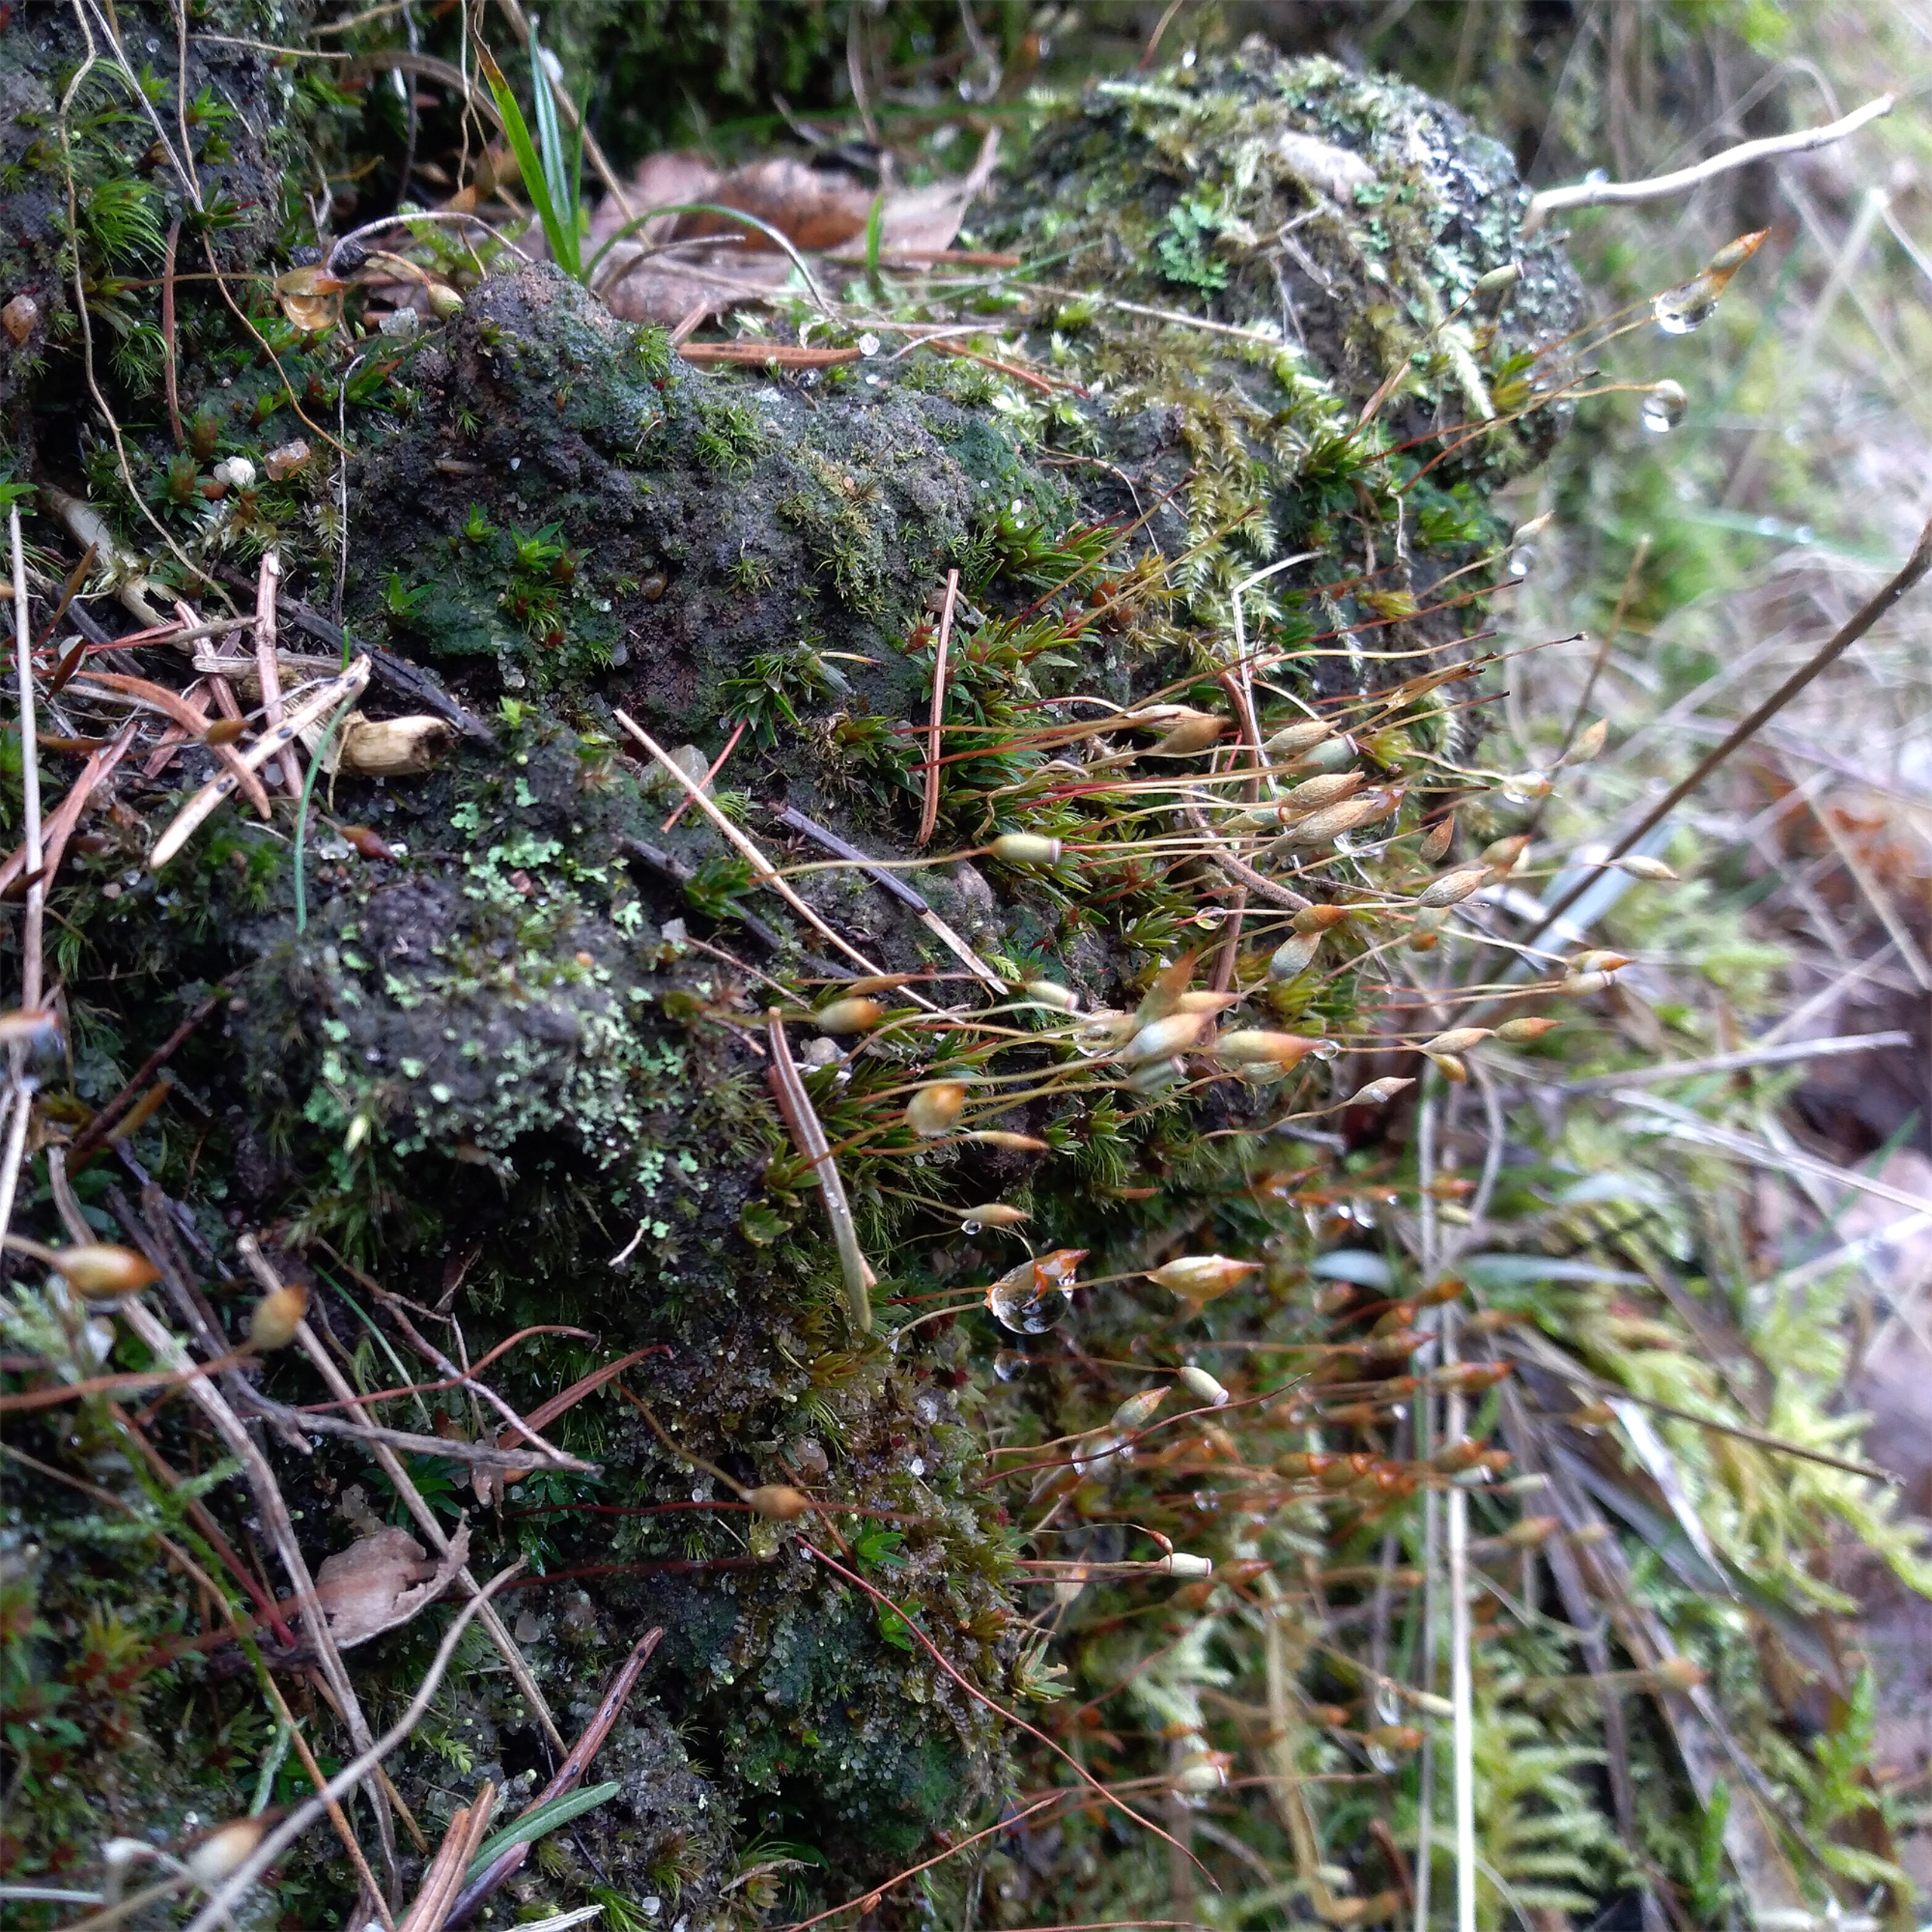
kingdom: Plantae
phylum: Bryophyta
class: Polytrichopsida
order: Polytrichales
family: Polytrichaceae
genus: Pogonatum
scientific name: Pogonatum aloides
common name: Smal urnekapsel
